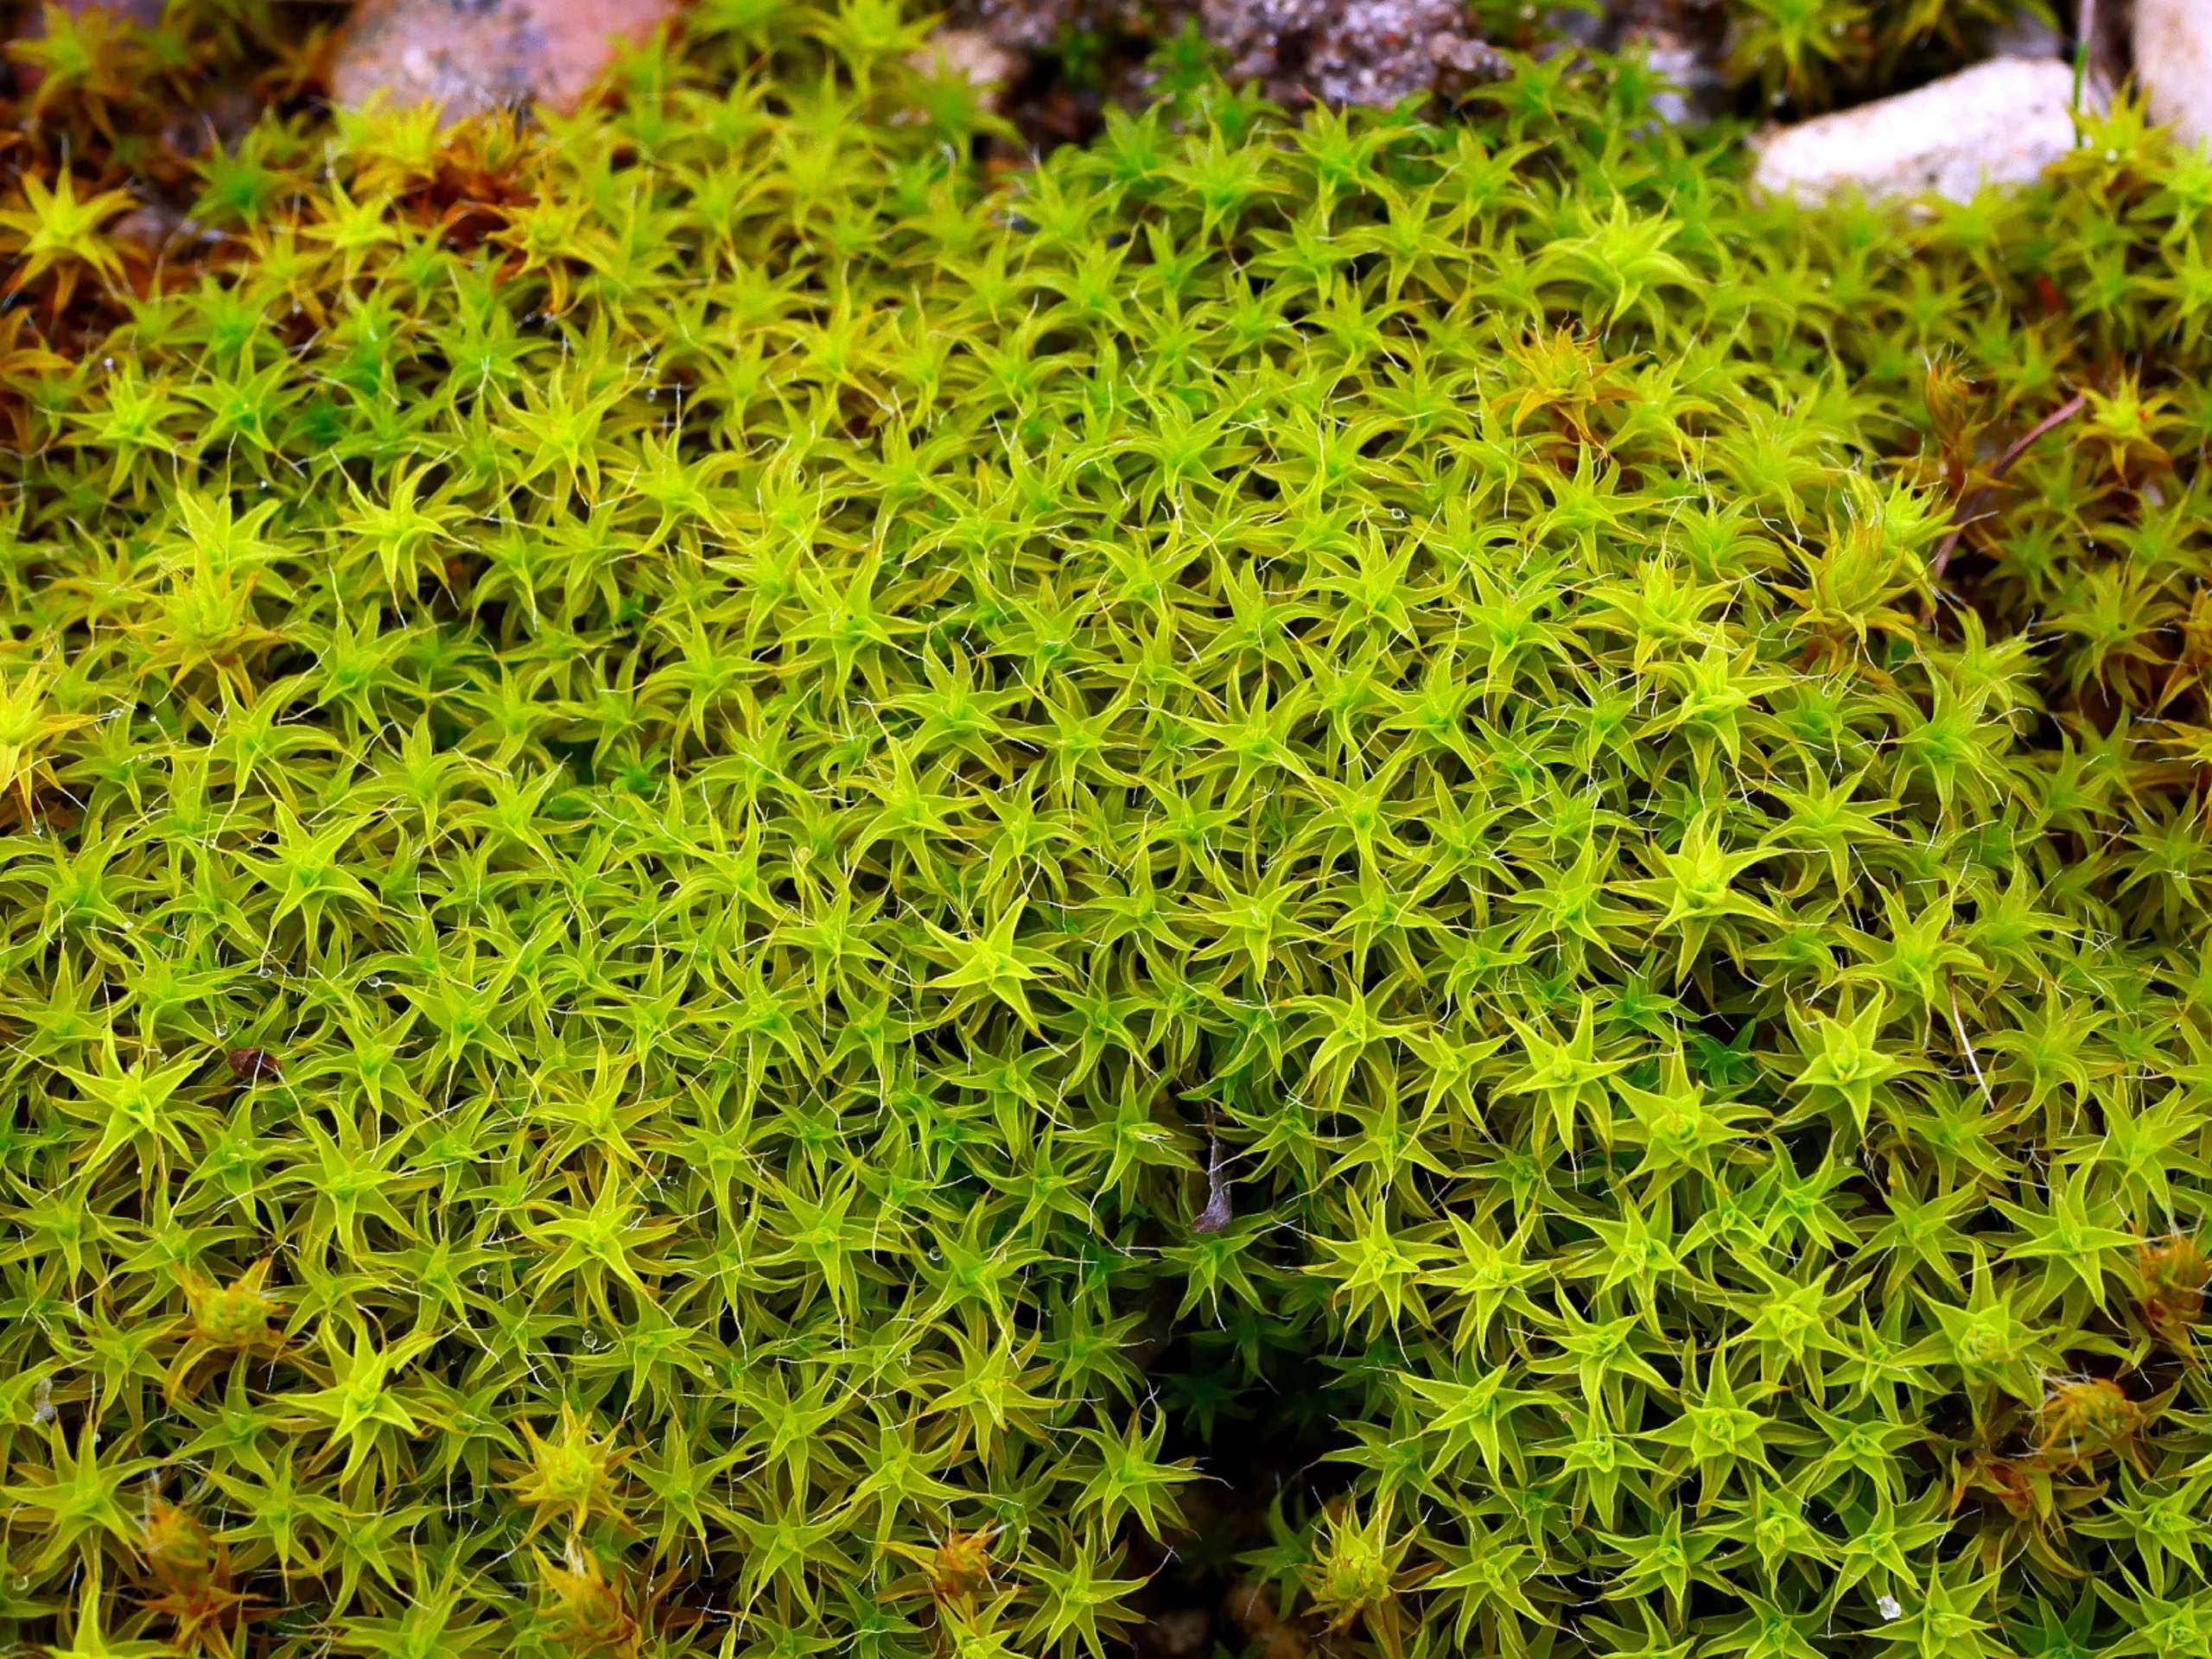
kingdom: Plantae
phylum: Bryophyta
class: Bryopsida
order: Pottiales
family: Pottiaceae
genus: Syntrichia
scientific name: Syntrichia ruralis
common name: Spidsbladet hårstjerne
